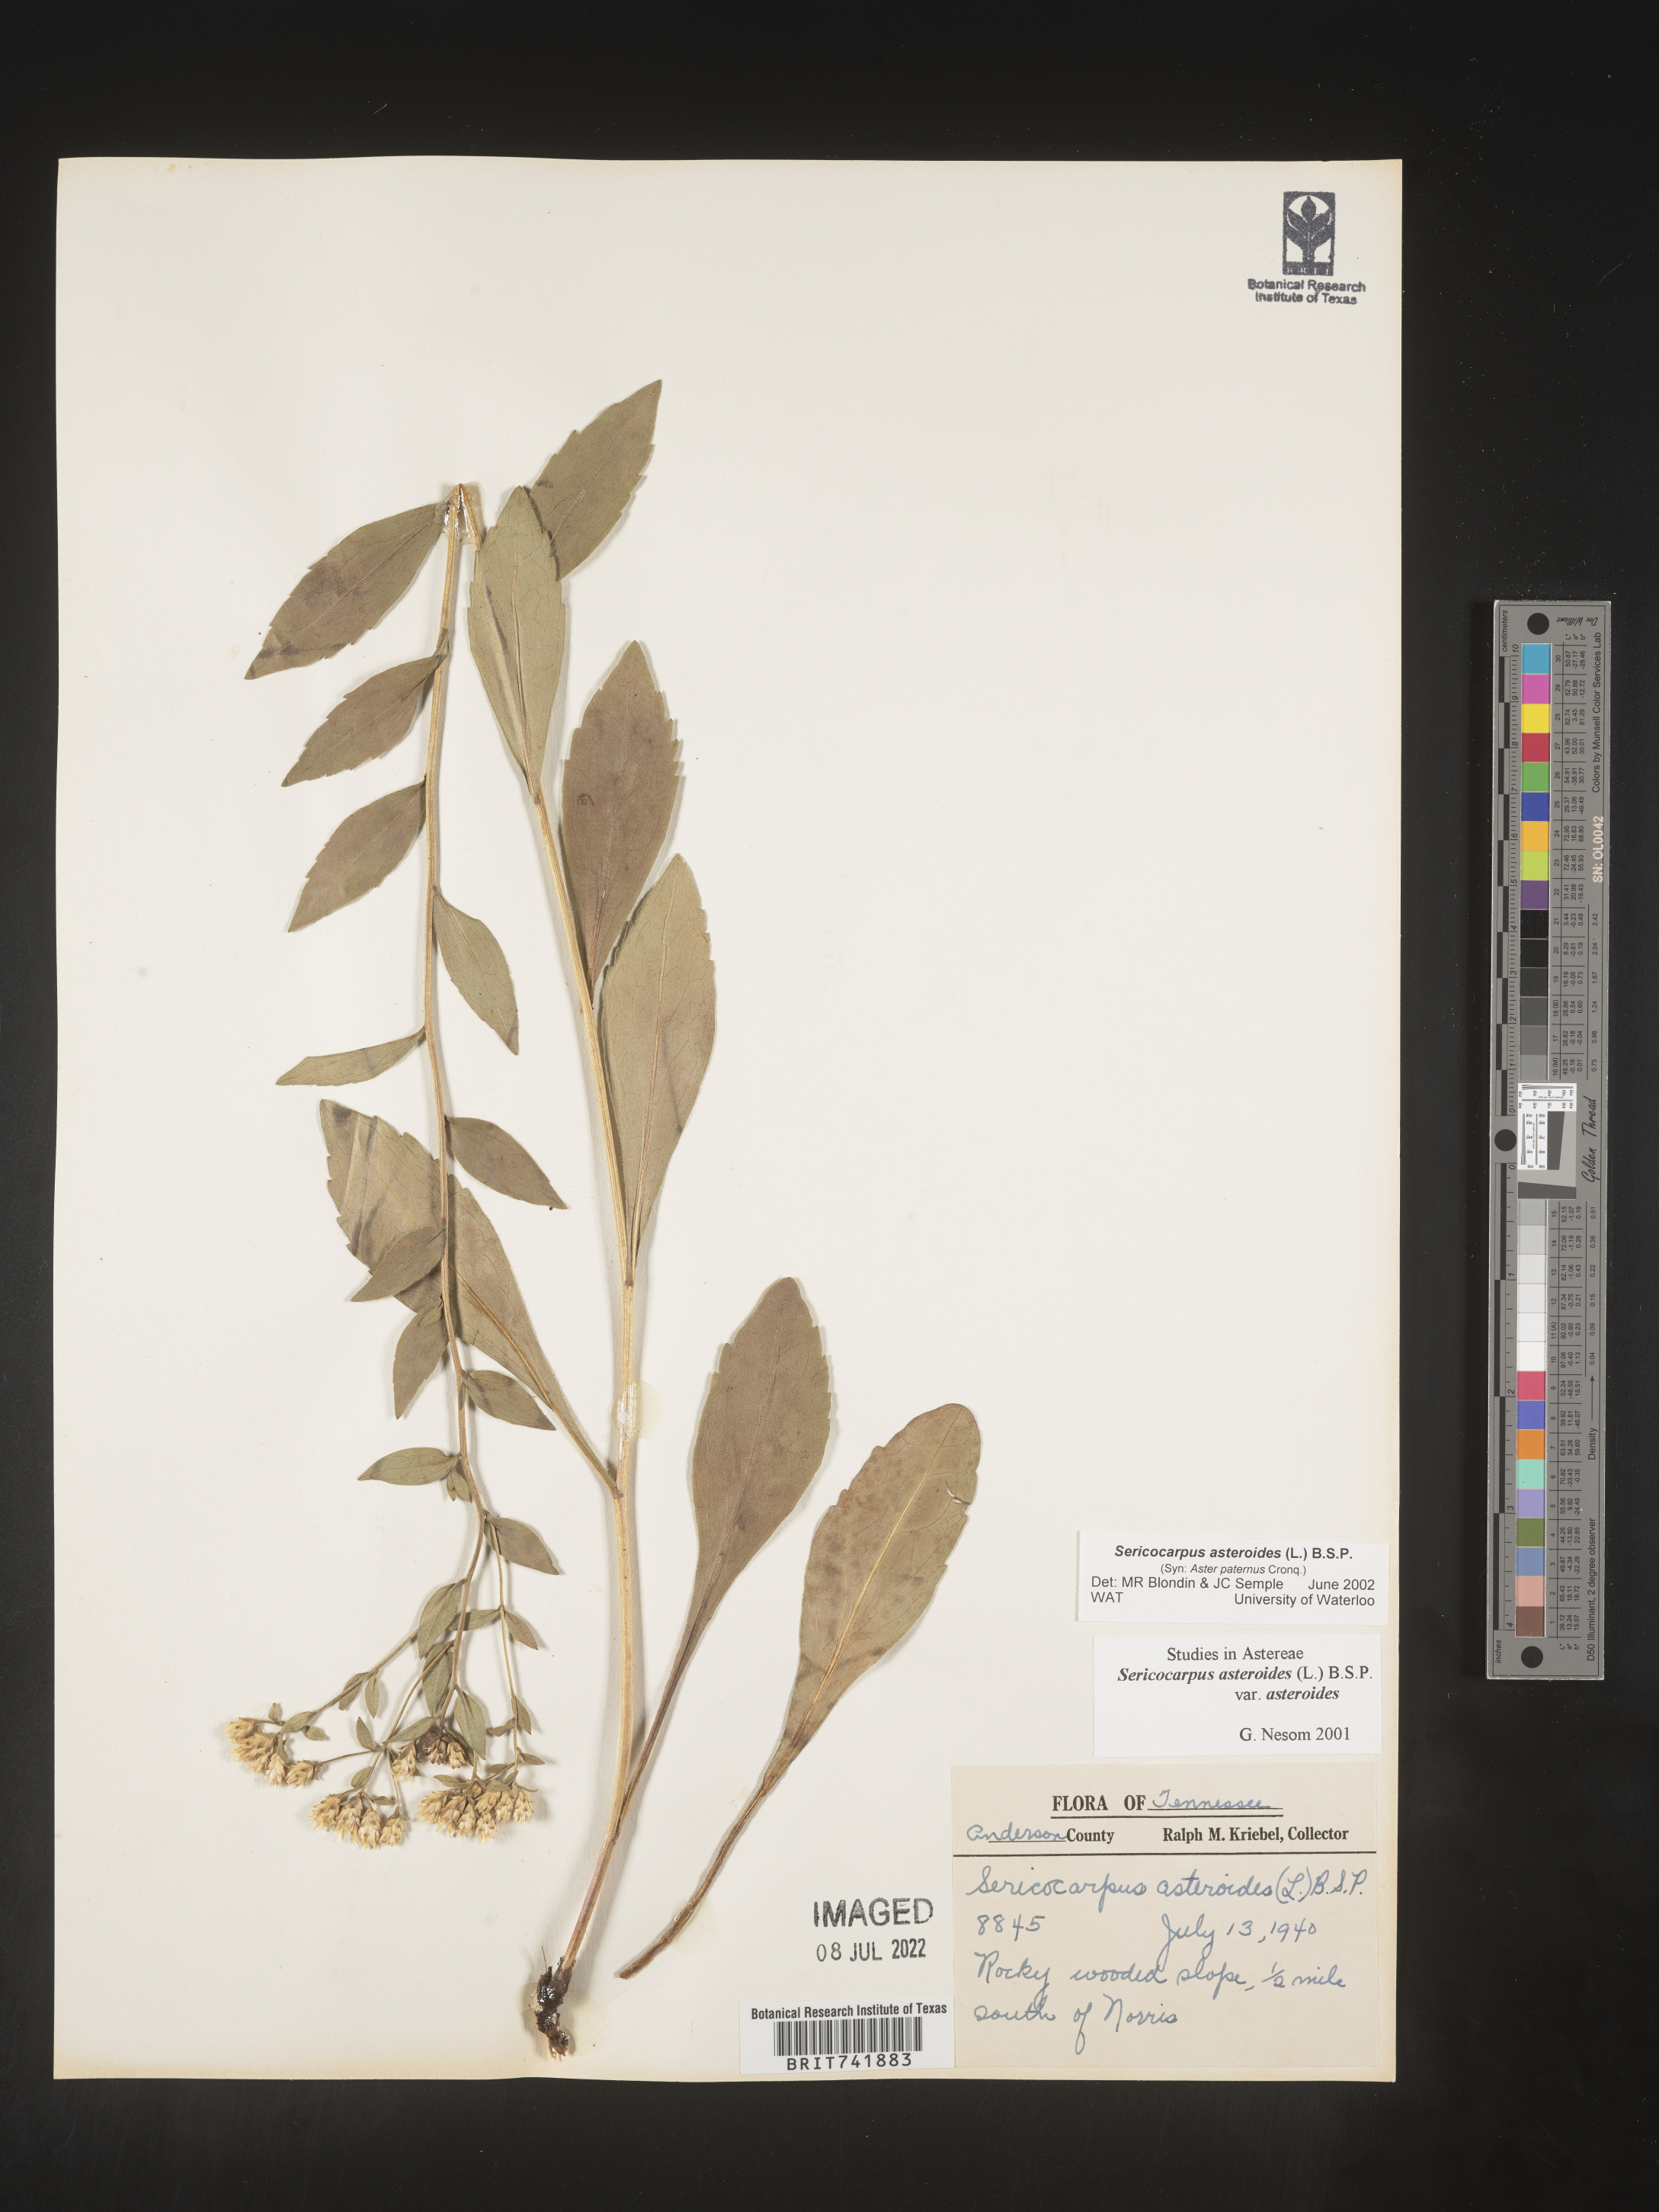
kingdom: Plantae
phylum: Tracheophyta
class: Magnoliopsida
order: Asterales
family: Asteraceae
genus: Sericocarpus
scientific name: Sericocarpus asteroides
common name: Toothed white-top aster
